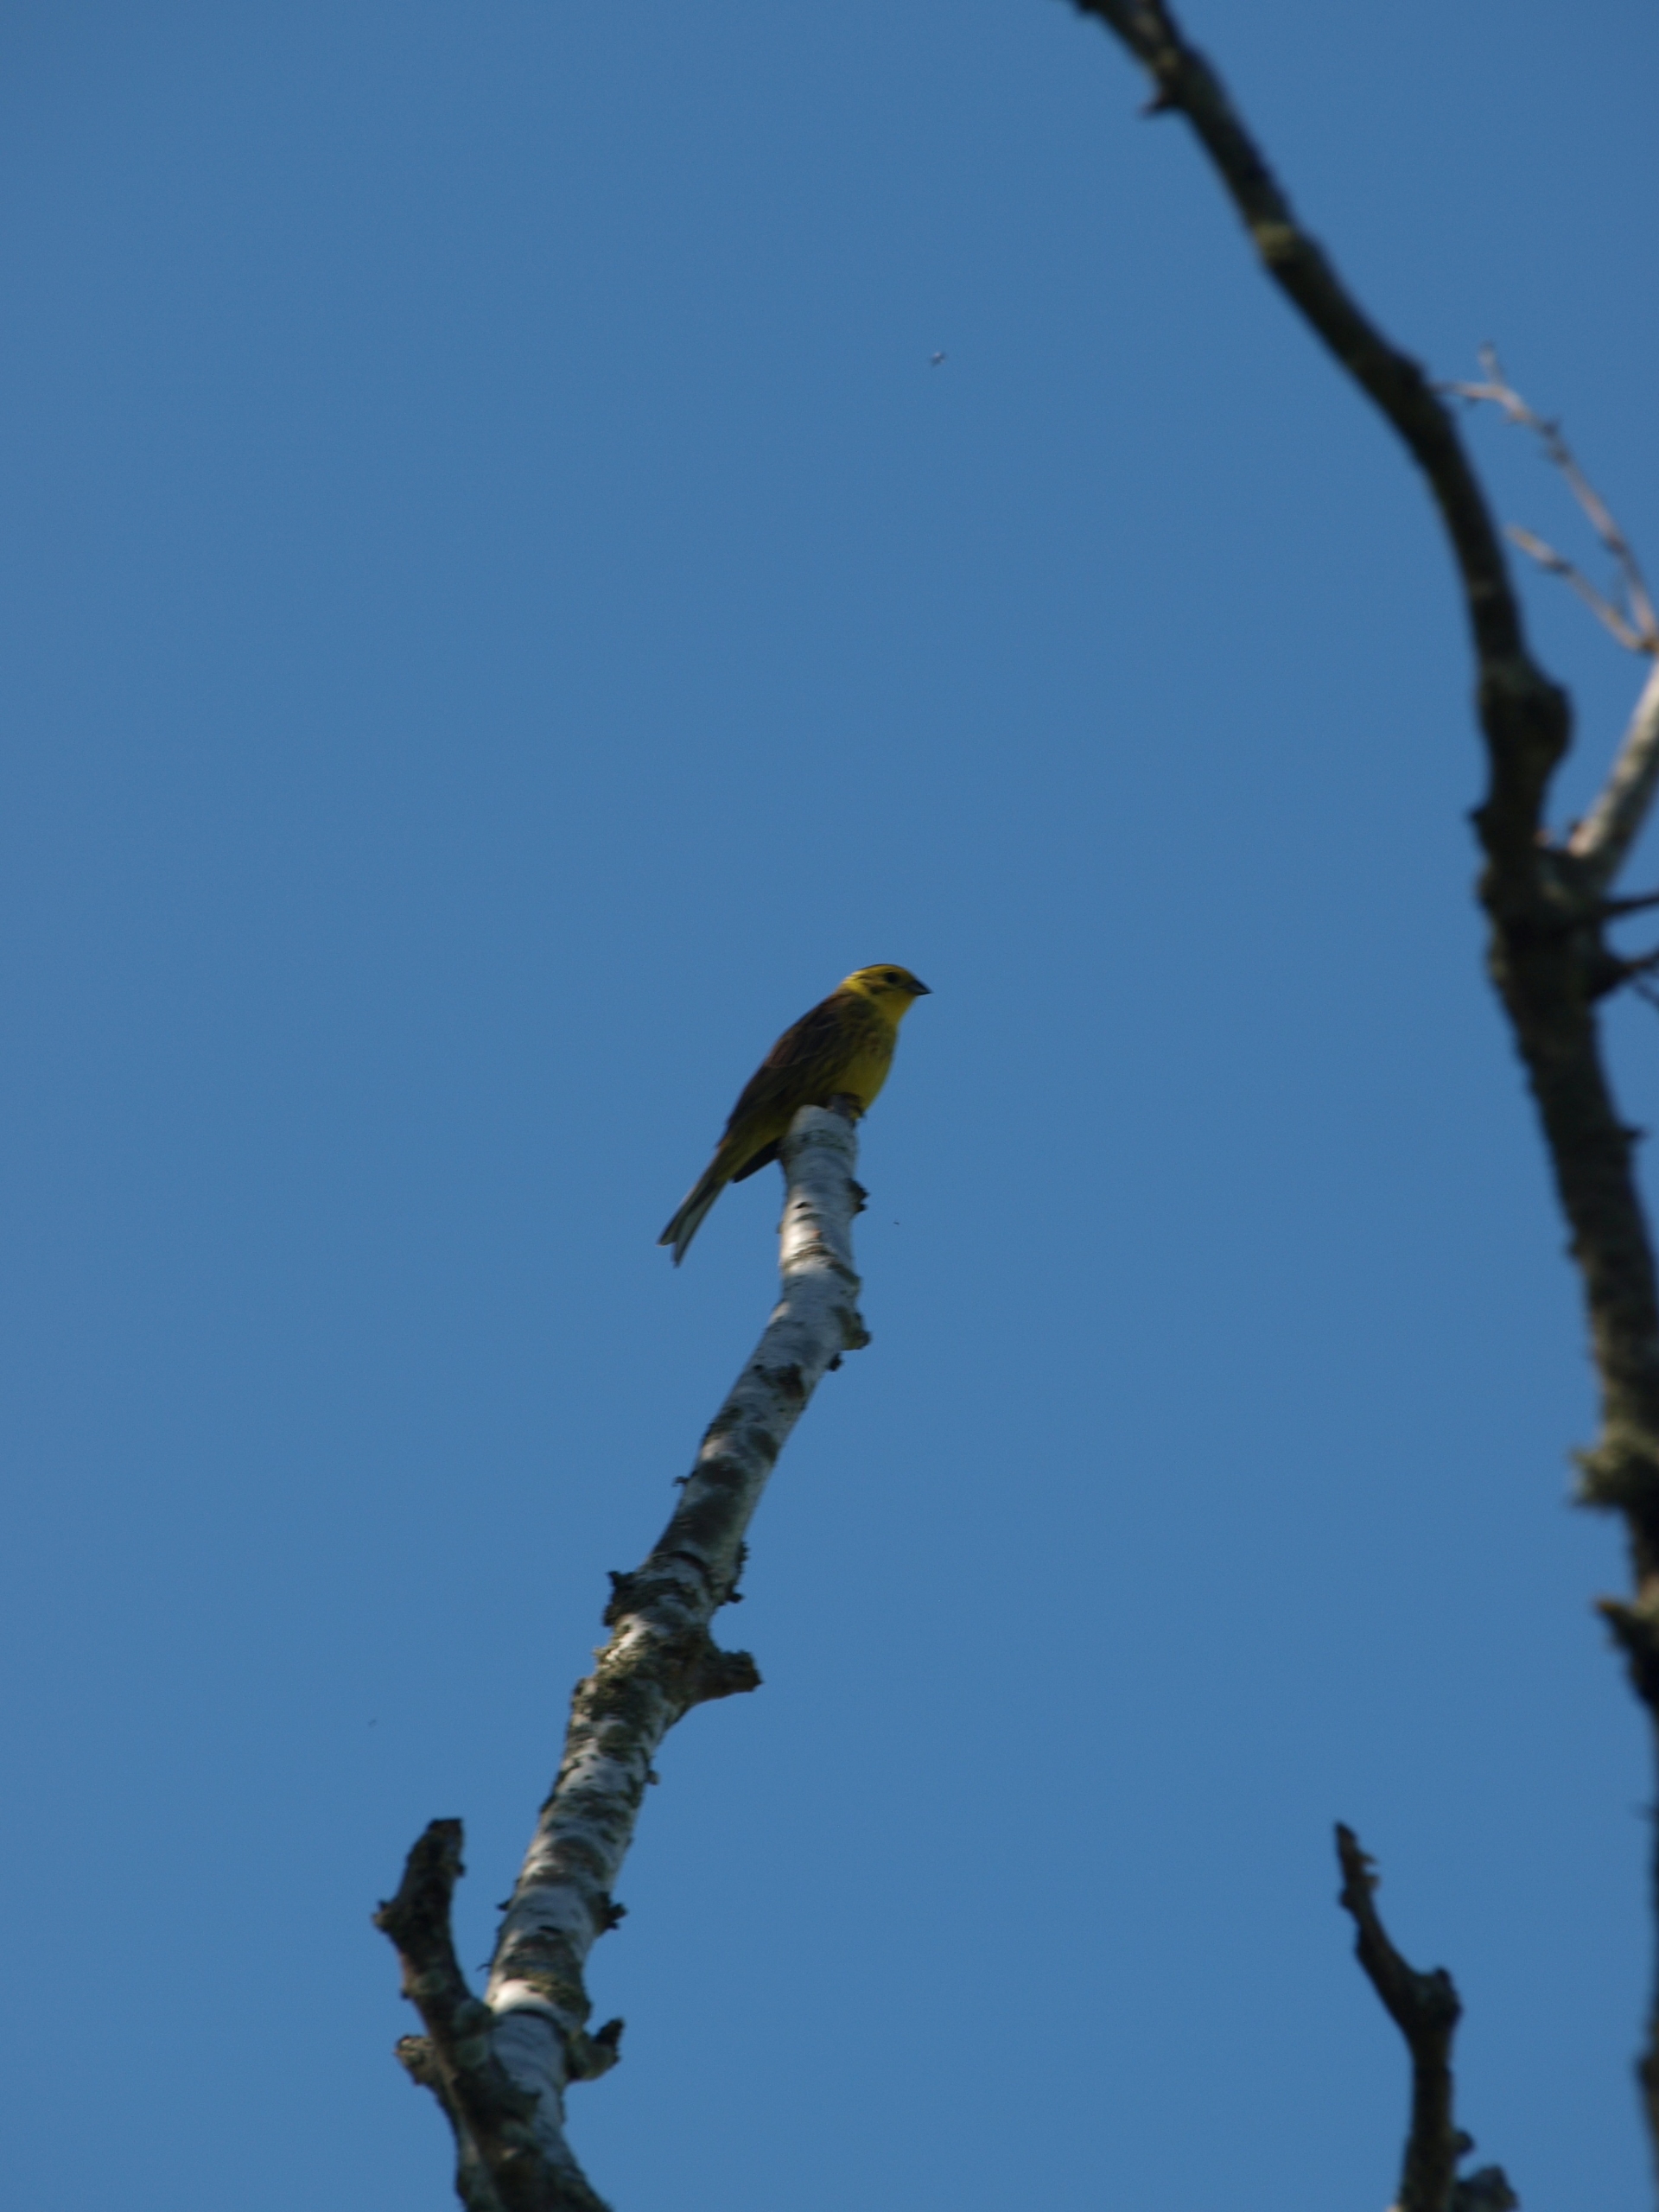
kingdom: Animalia
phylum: Chordata
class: Aves
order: Passeriformes
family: Emberizidae
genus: Emberiza
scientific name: Emberiza citrinella
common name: Gulspurv
